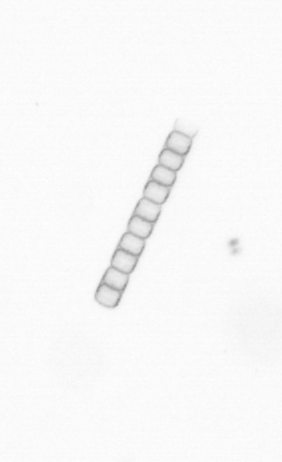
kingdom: Chromista
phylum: Ochrophyta
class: Bacillariophyceae
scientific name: Bacillariophyceae
